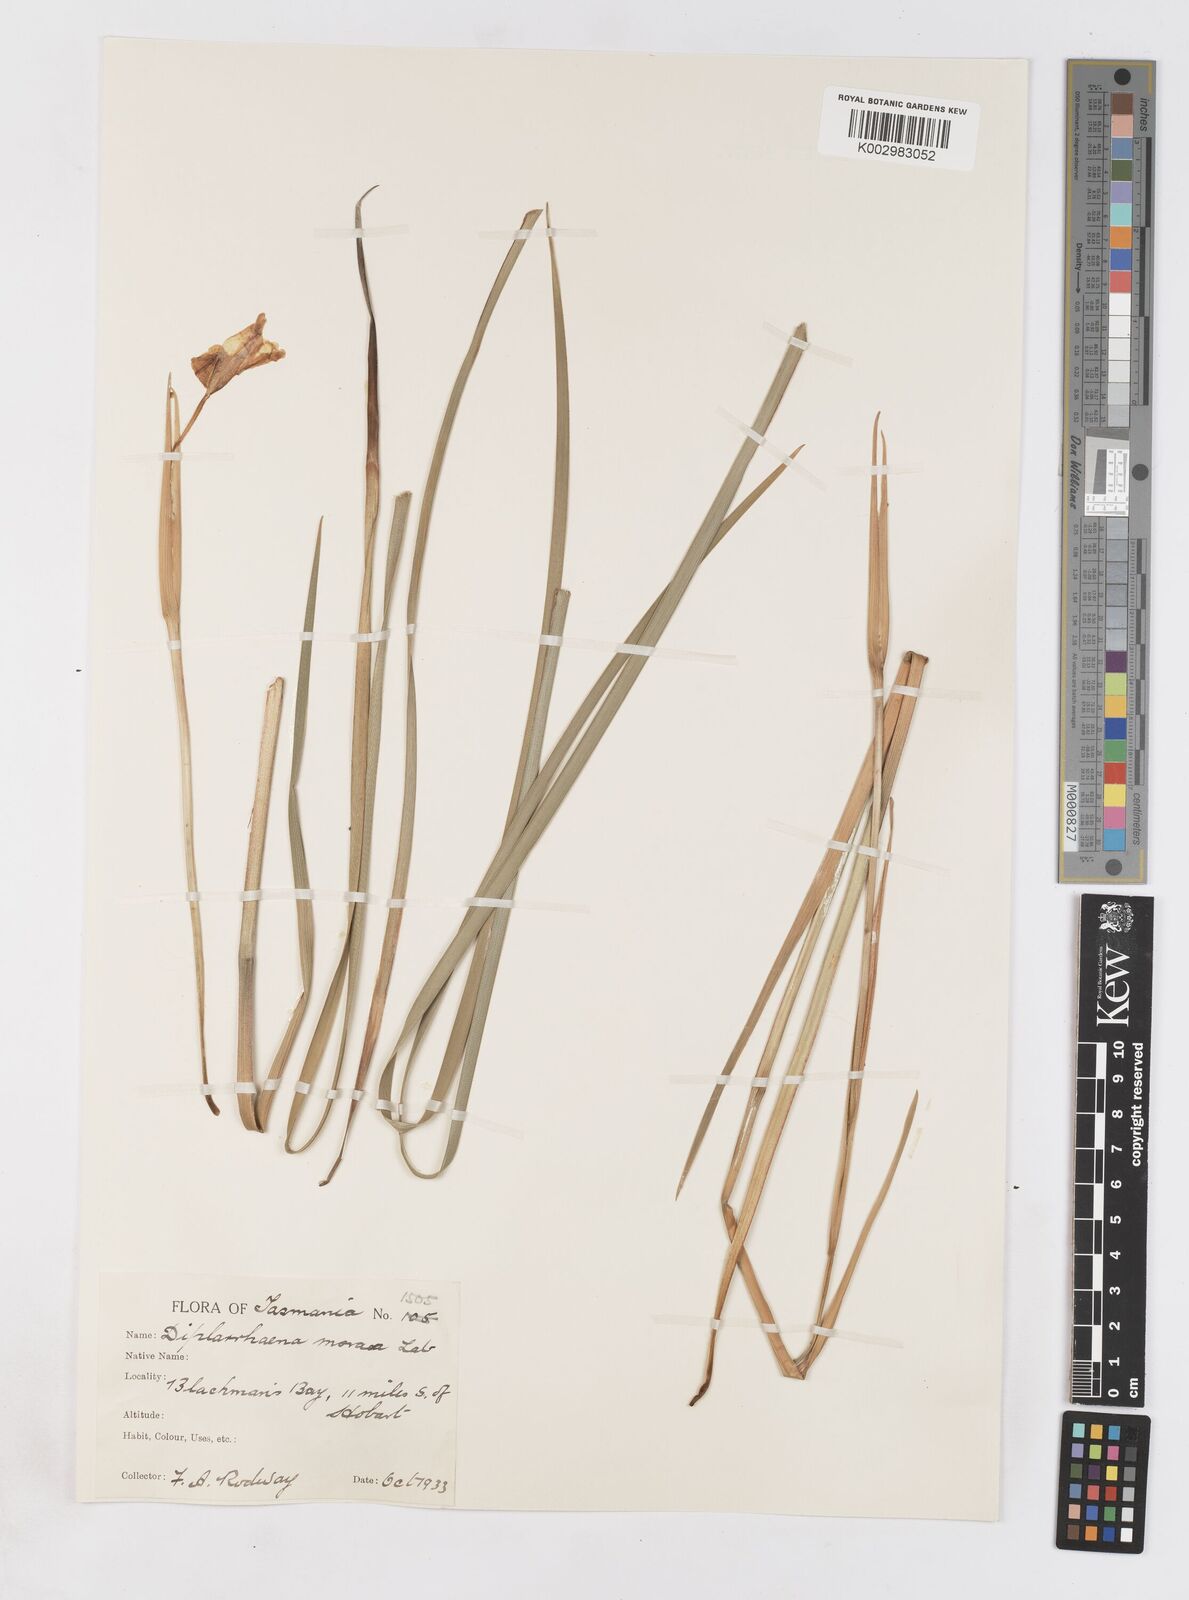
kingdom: Plantae
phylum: Tracheophyta
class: Liliopsida
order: Asparagales
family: Iridaceae
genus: Diplarrena
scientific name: Diplarrena moraea
